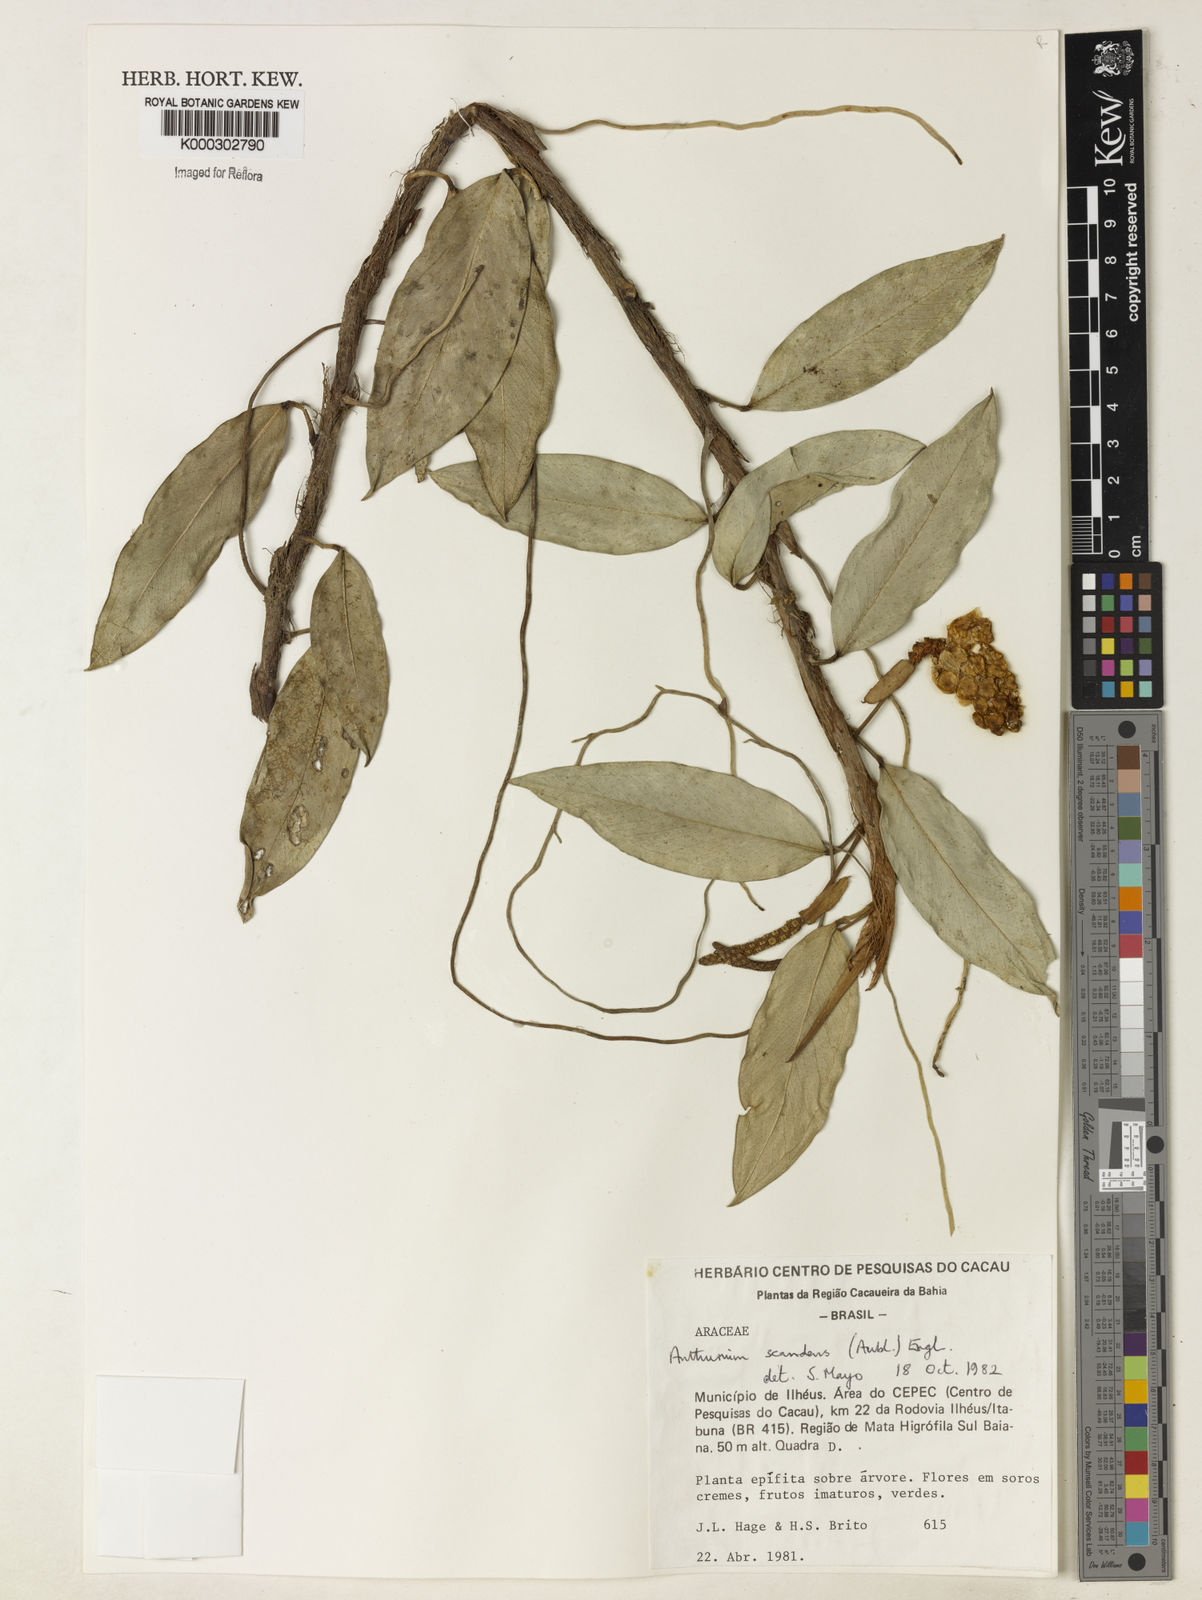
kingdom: Plantae
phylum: Tracheophyta
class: Liliopsida
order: Alismatales
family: Araceae
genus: Anthurium
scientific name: Anthurium scandens
